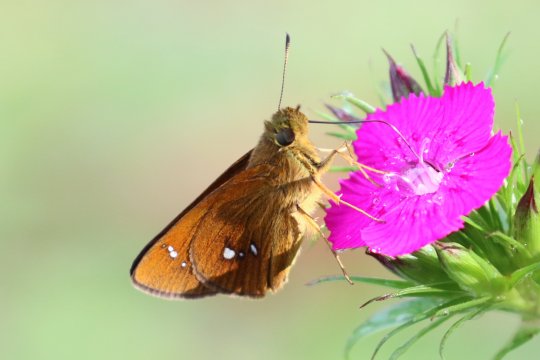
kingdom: Animalia
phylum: Arthropoda
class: Insecta
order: Lepidoptera
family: Hesperiidae
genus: Zenonoida
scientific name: Zenonoida
